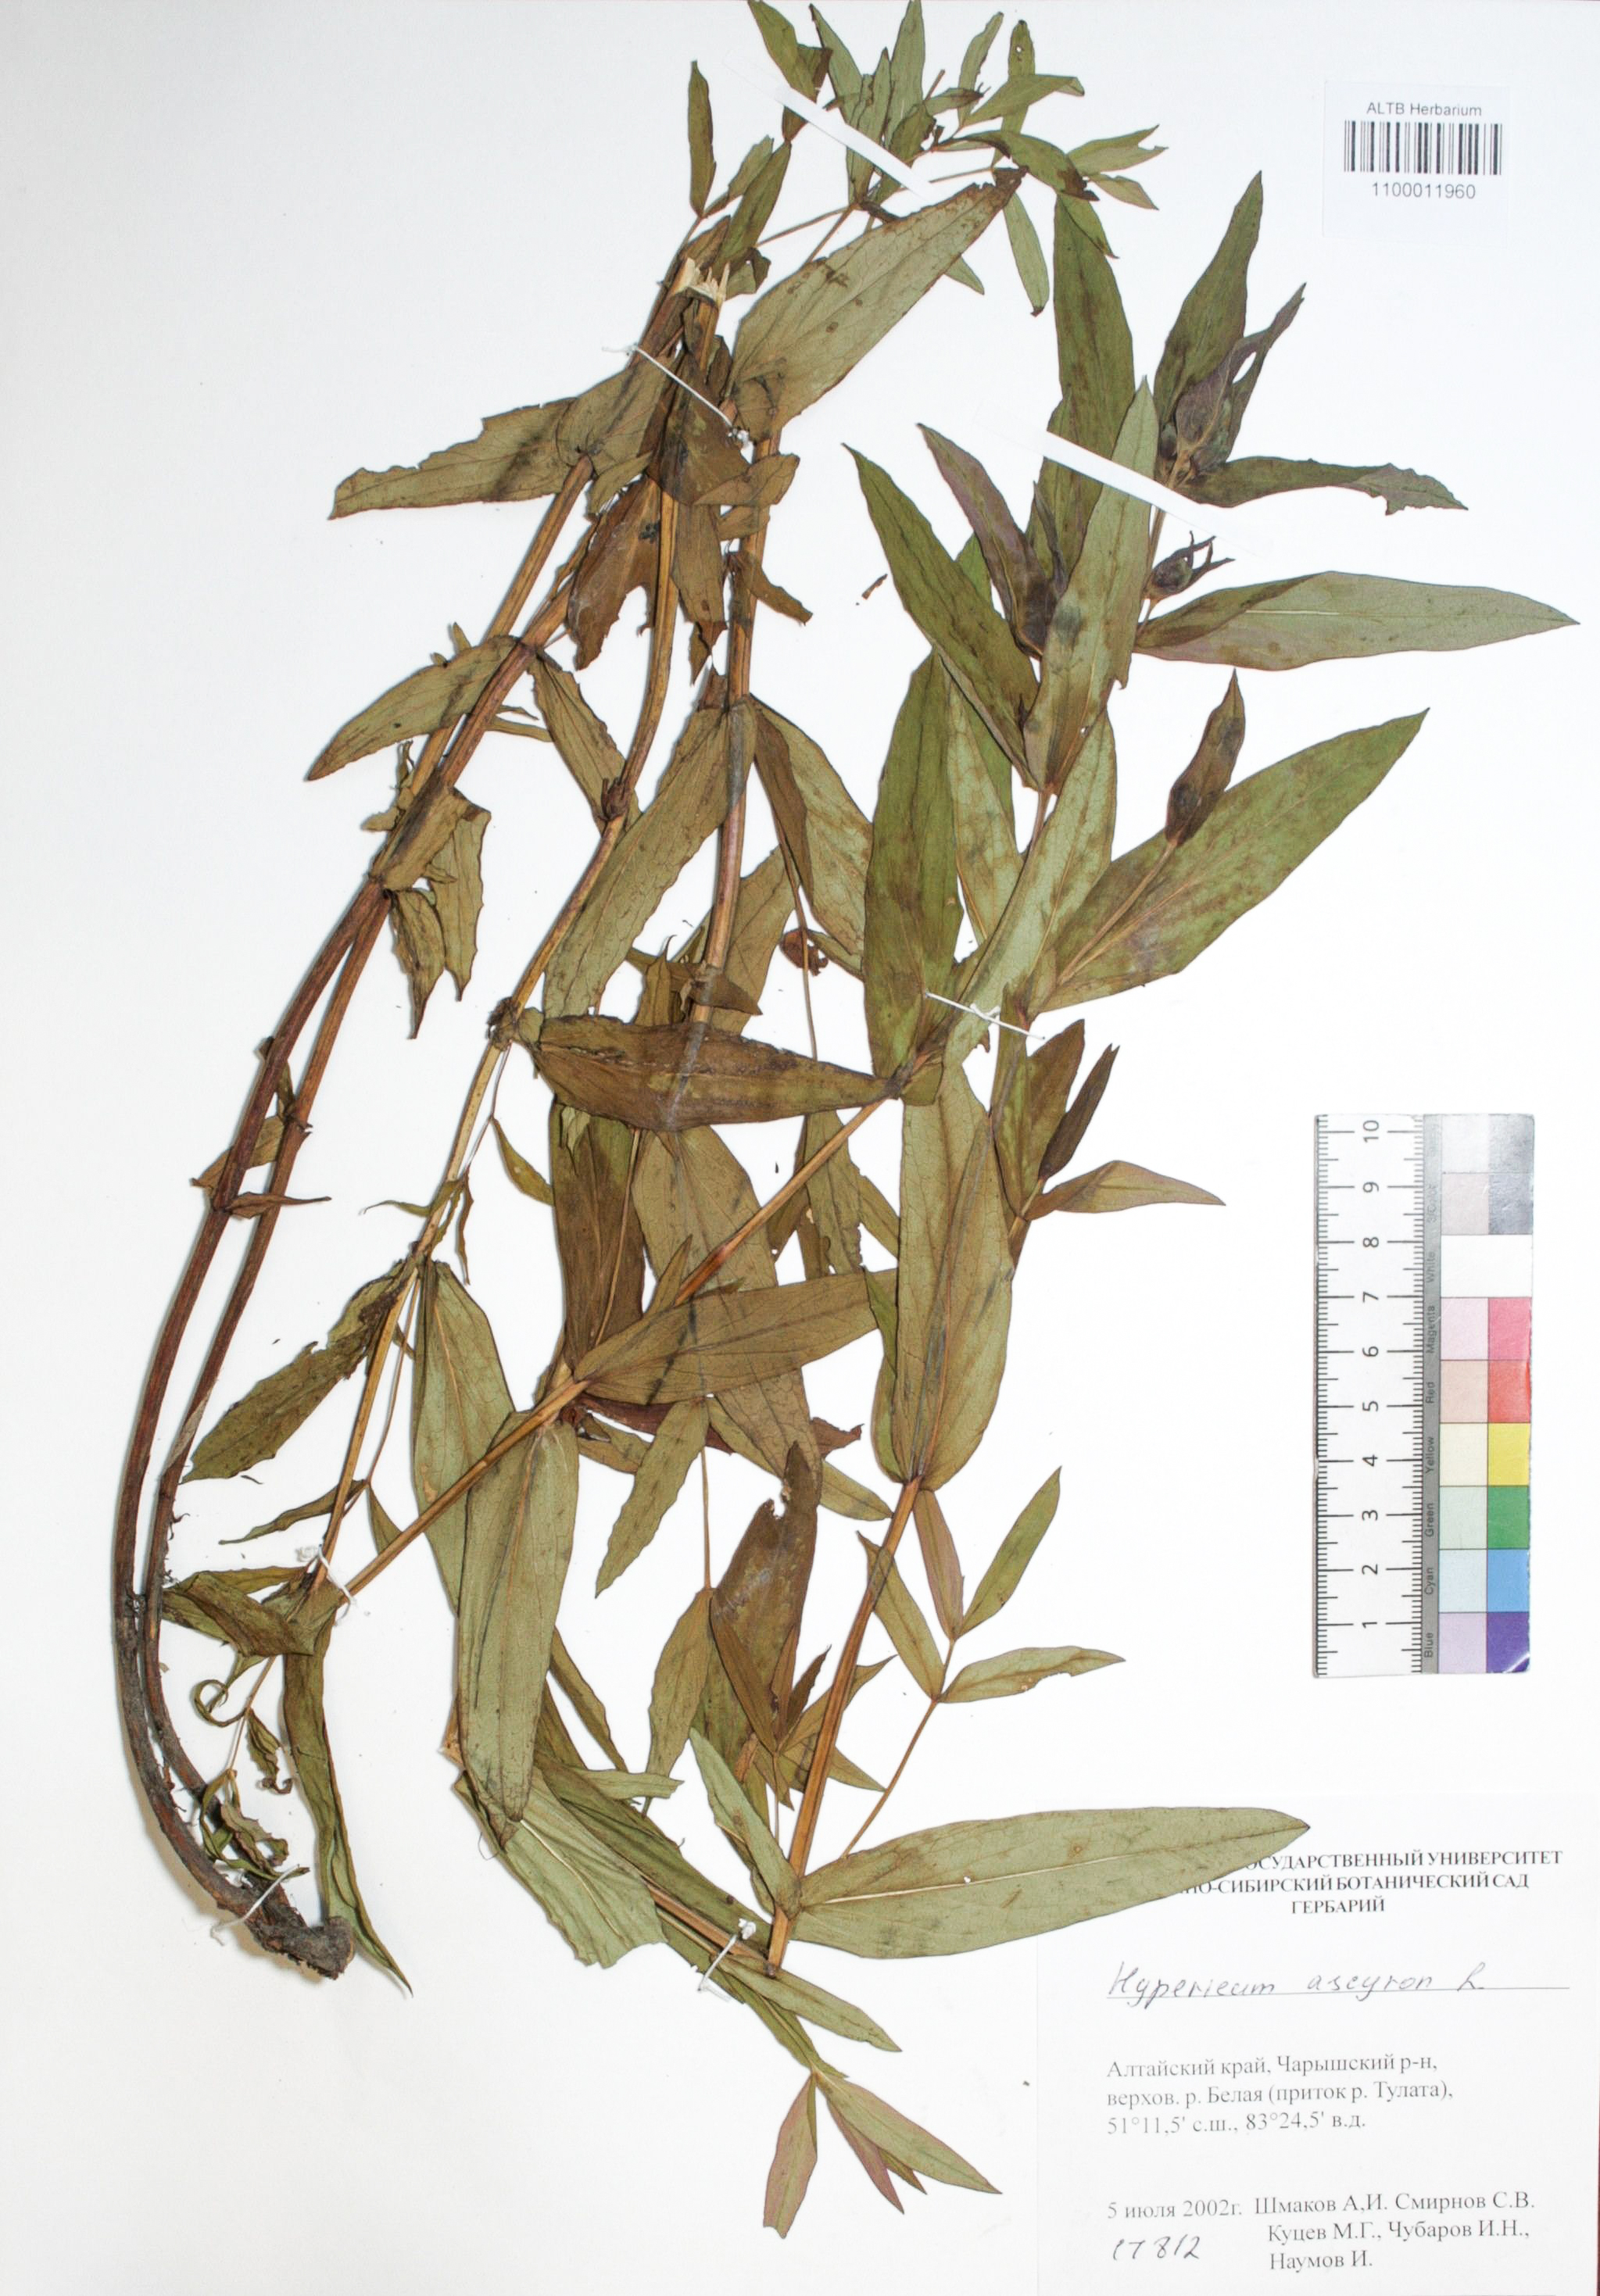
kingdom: Plantae
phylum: Tracheophyta
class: Magnoliopsida
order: Malpighiales
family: Hypericaceae
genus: Hypericum
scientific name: Hypericum ascyron
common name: Giant st. john's-wort
